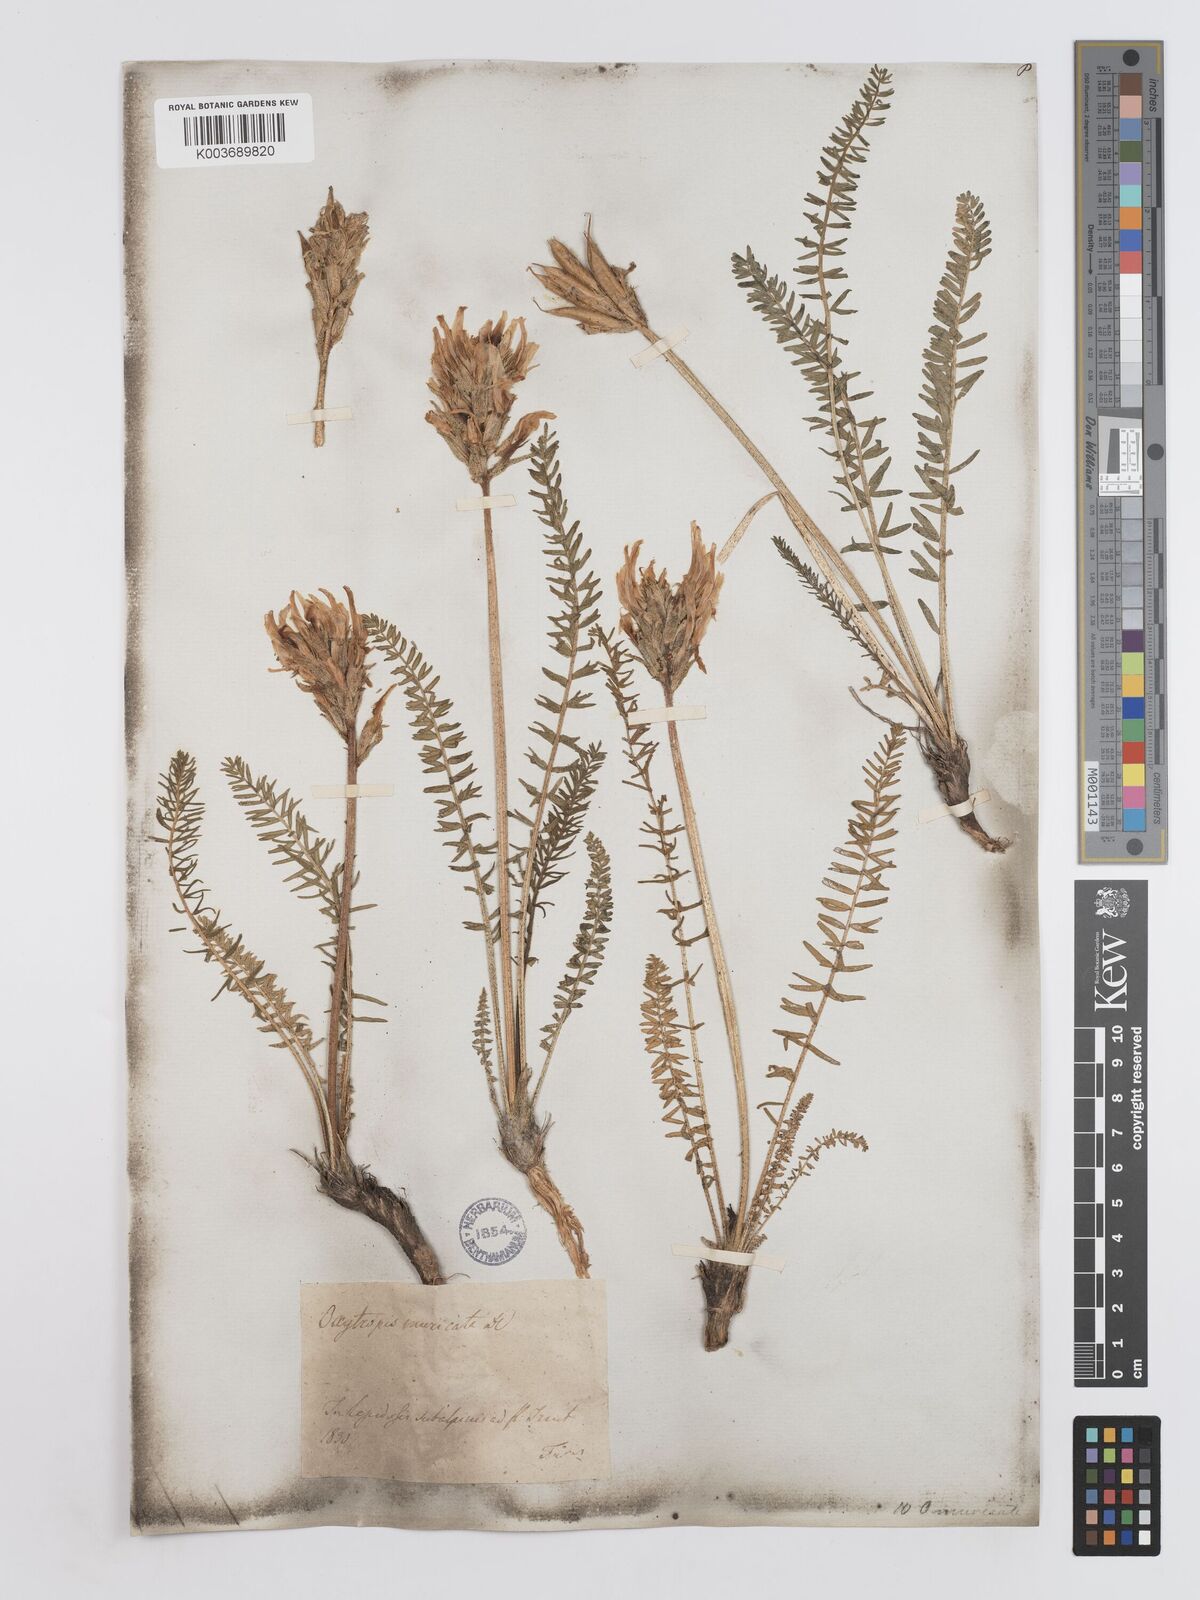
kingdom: Plantae
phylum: Tracheophyta
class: Magnoliopsida
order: Fabales
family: Fabaceae
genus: Oxytropis
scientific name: Oxytropis muricata
